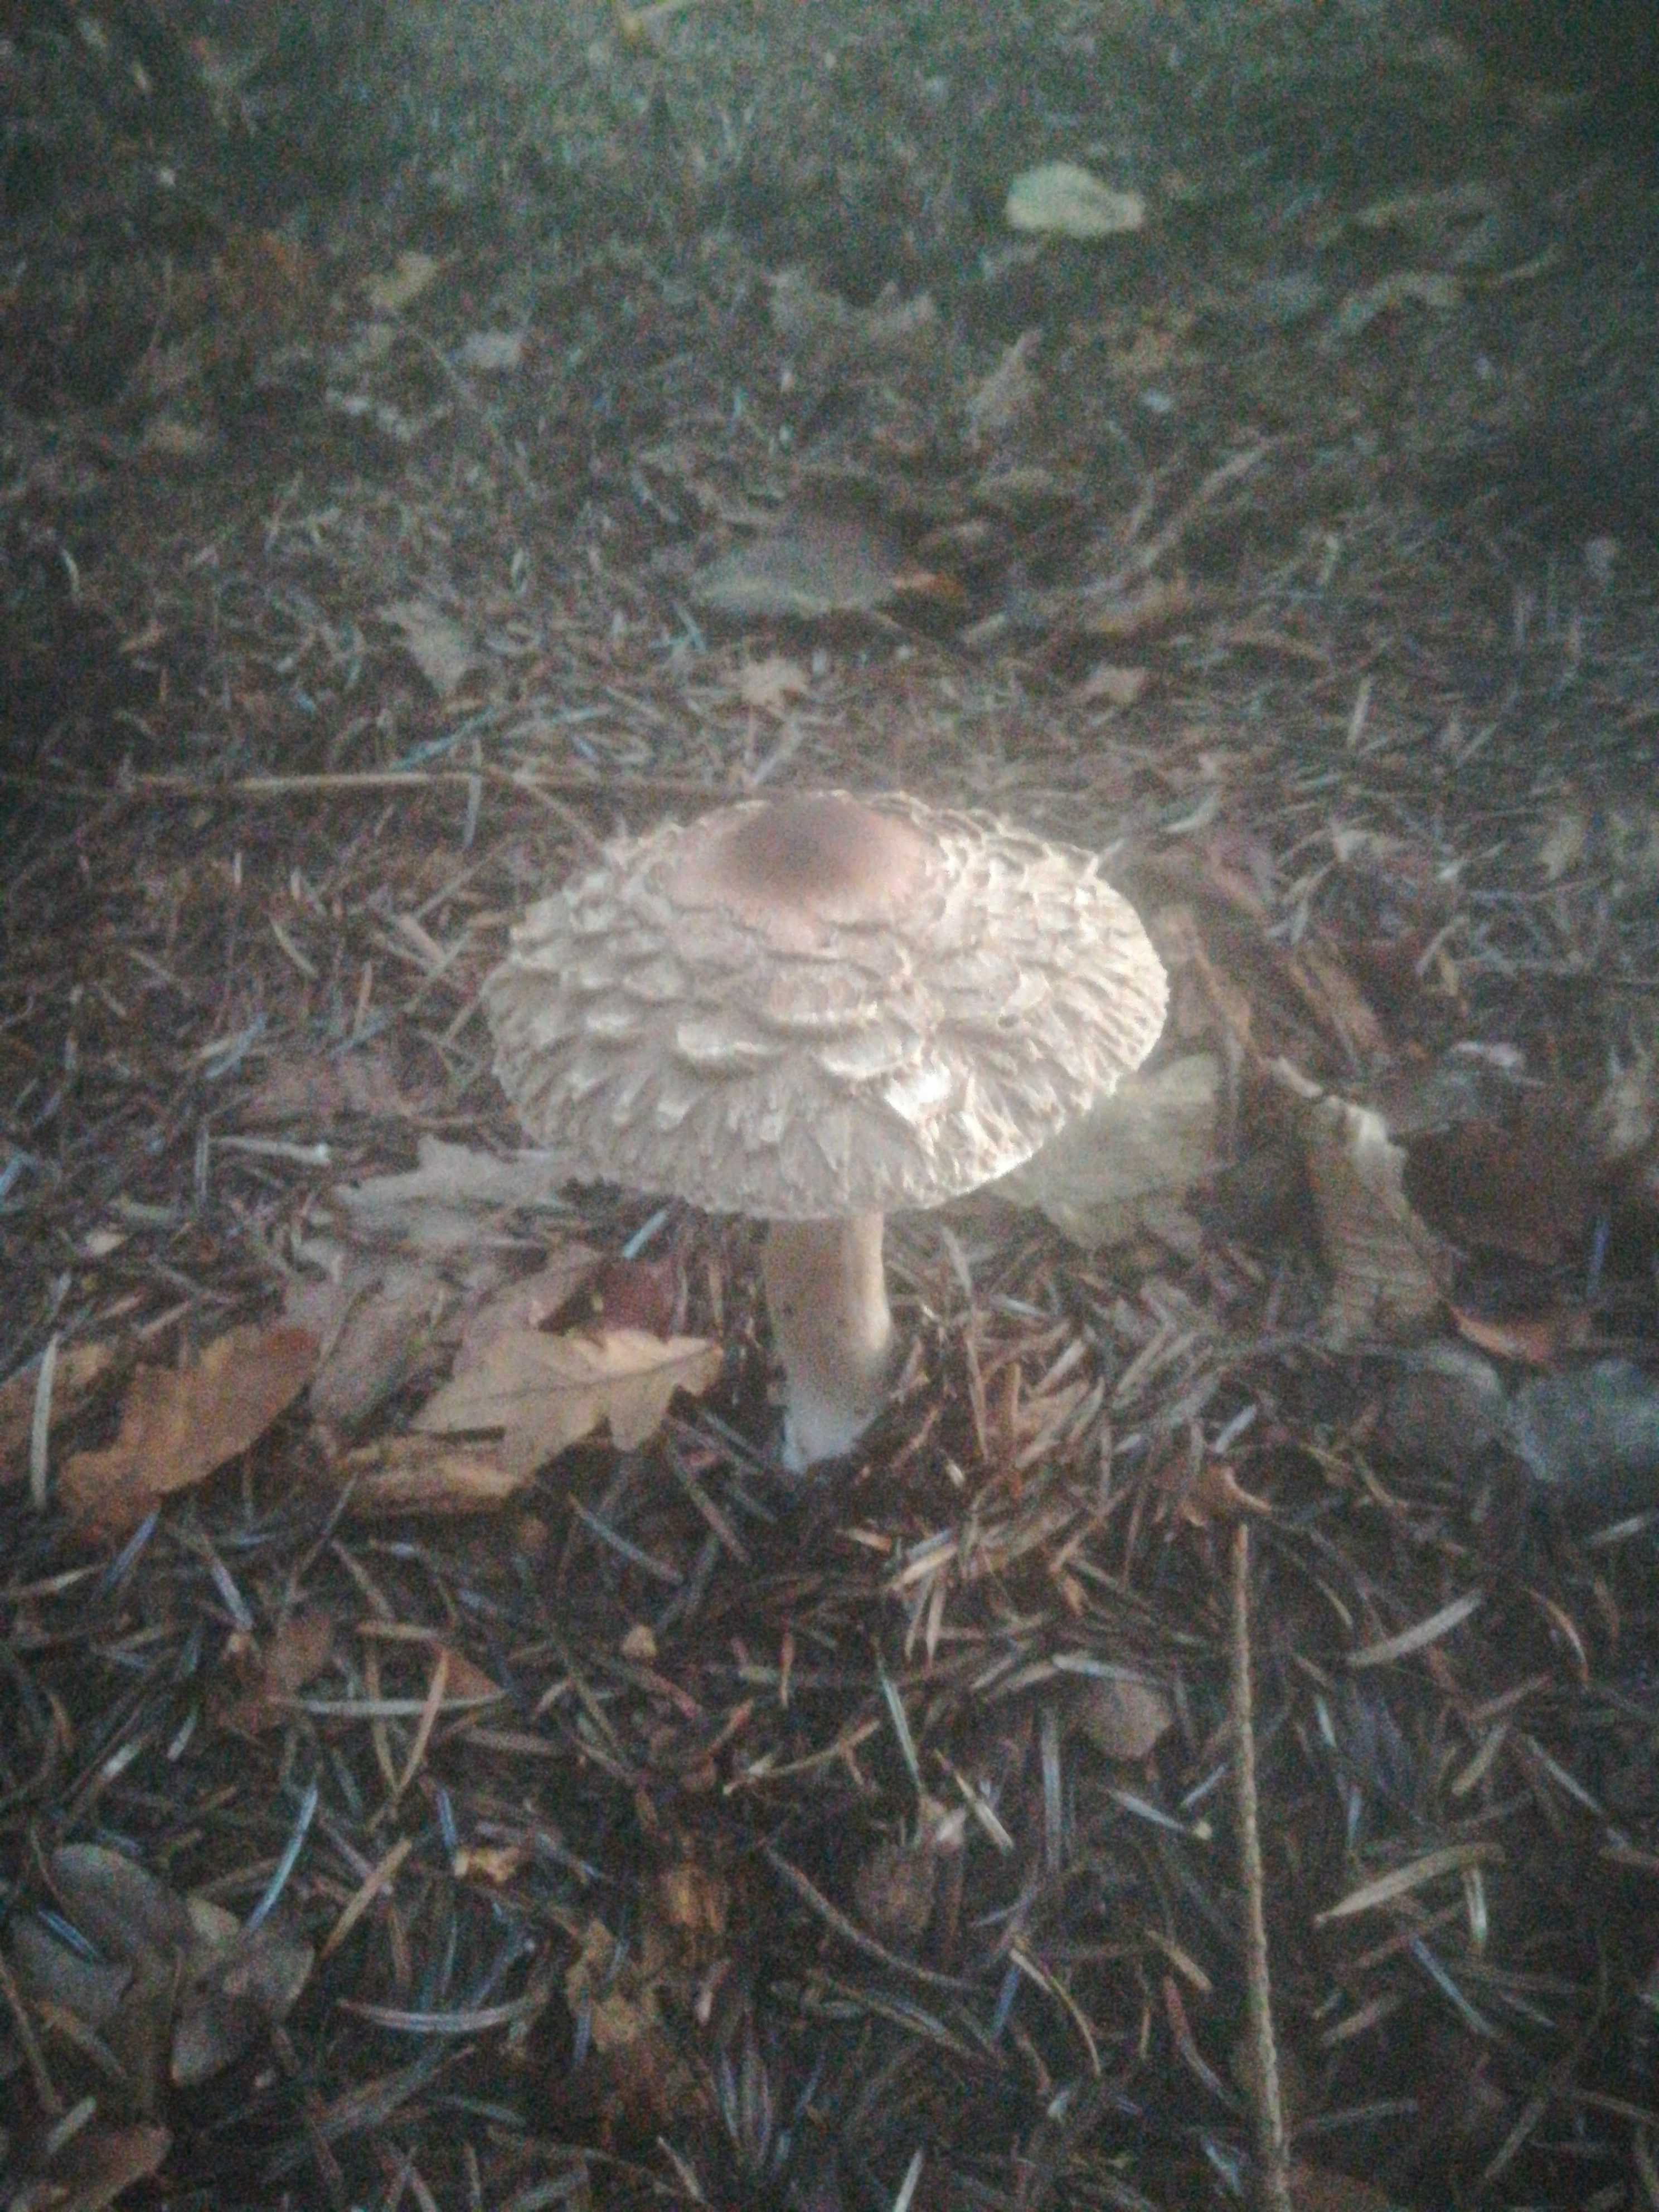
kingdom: Fungi
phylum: Basidiomycota
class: Agaricomycetes
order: Agaricales
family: Agaricaceae
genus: Chlorophyllum
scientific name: Chlorophyllum olivieri
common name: almindelig rabarberhat
